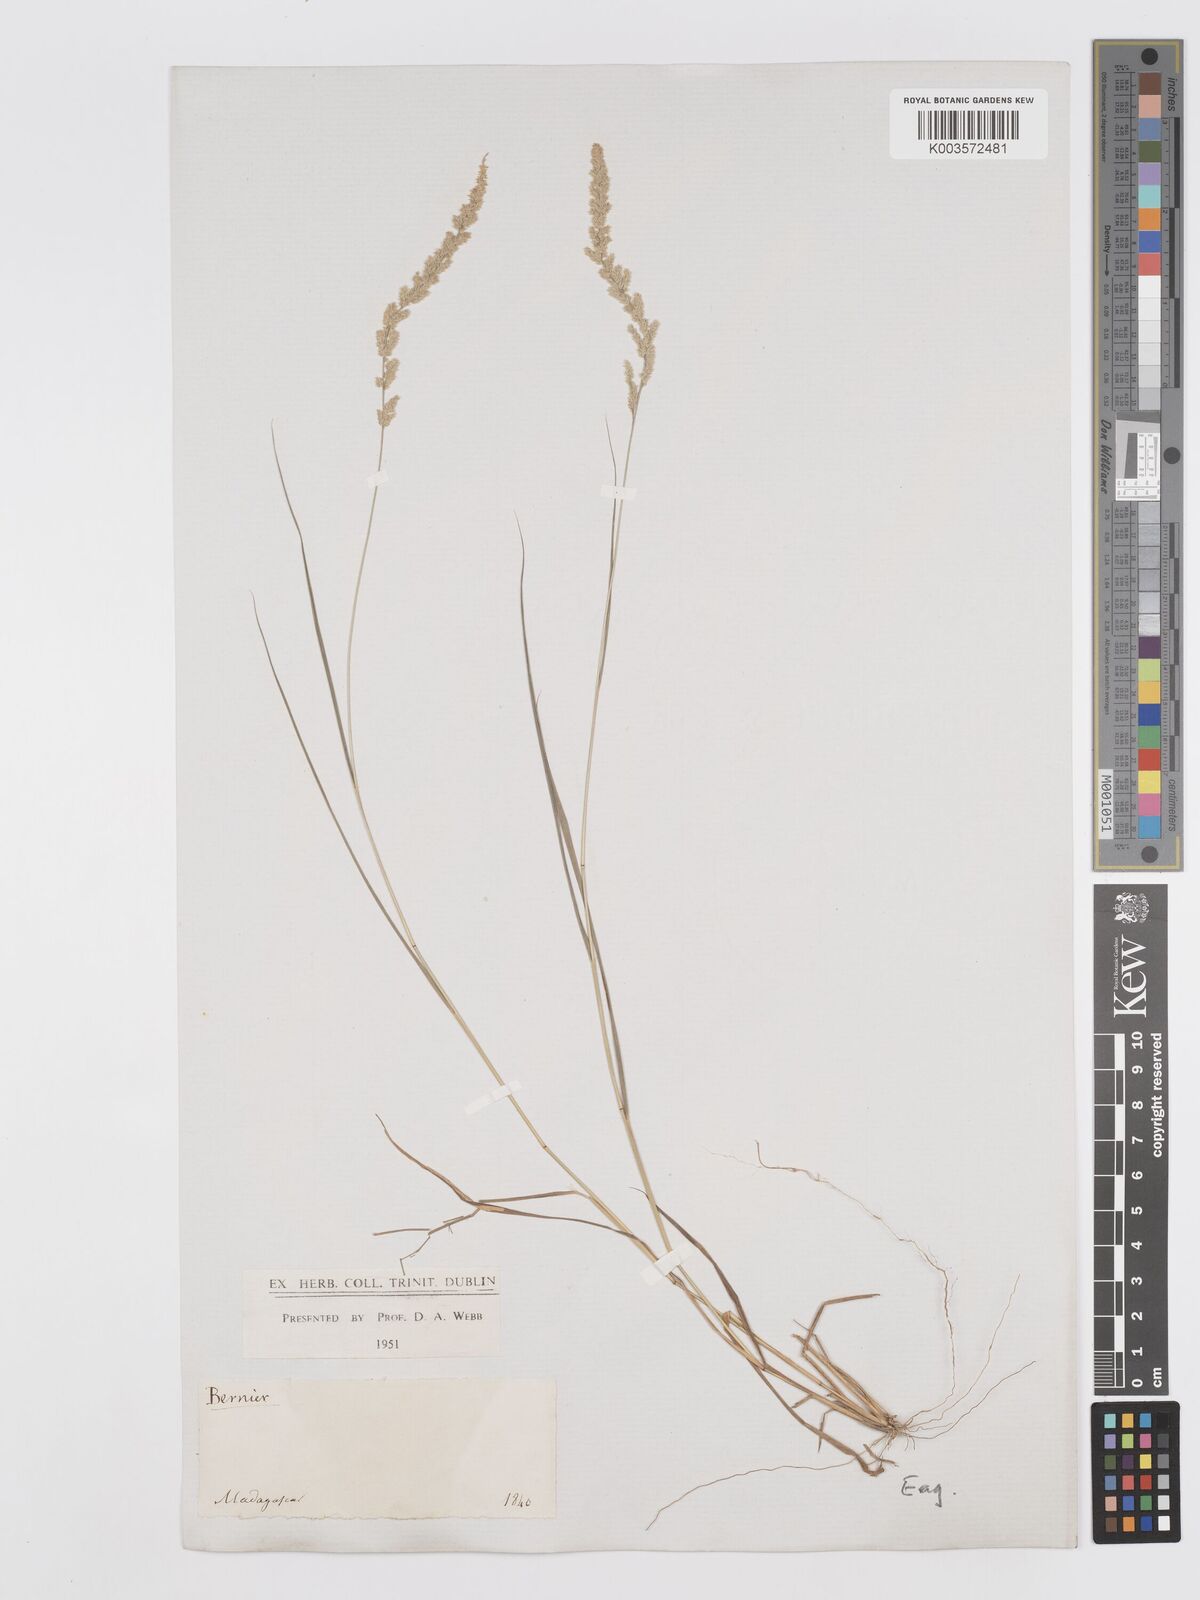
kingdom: Plantae
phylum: Tracheophyta
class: Liliopsida
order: Poales
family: Poaceae
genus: Eragrostis
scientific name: Eragrostis ciliaris
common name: Gophertail lovegrass
